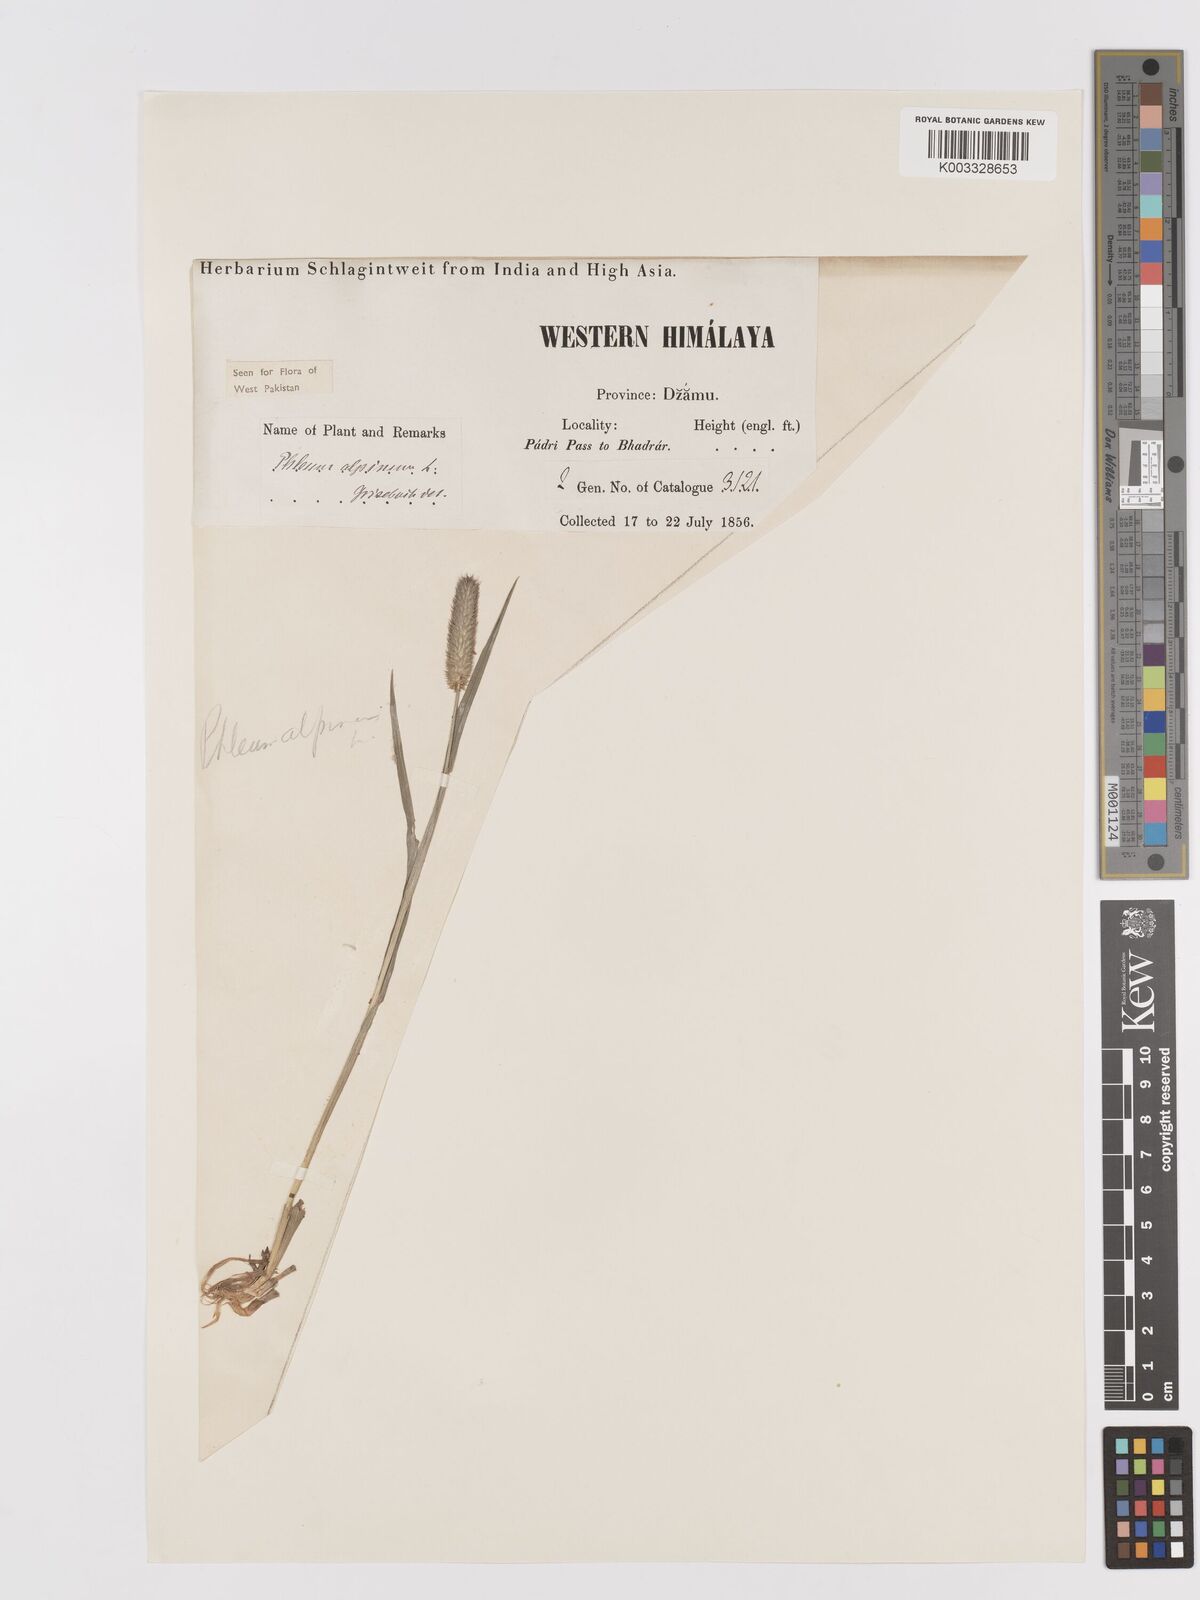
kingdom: Plantae
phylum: Tracheophyta
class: Liliopsida
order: Poales
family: Poaceae
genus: Phleum
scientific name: Phleum alpinum
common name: Alpine cat's-tail
